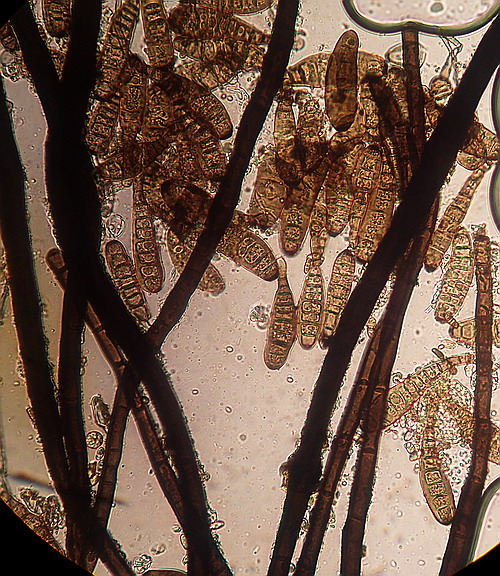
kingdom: Fungi
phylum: Ascomycota
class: Dothideomycetes
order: Pleosporales
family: Didymosphaeriaceae
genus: Letendraea
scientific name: Letendraea helminthicola
